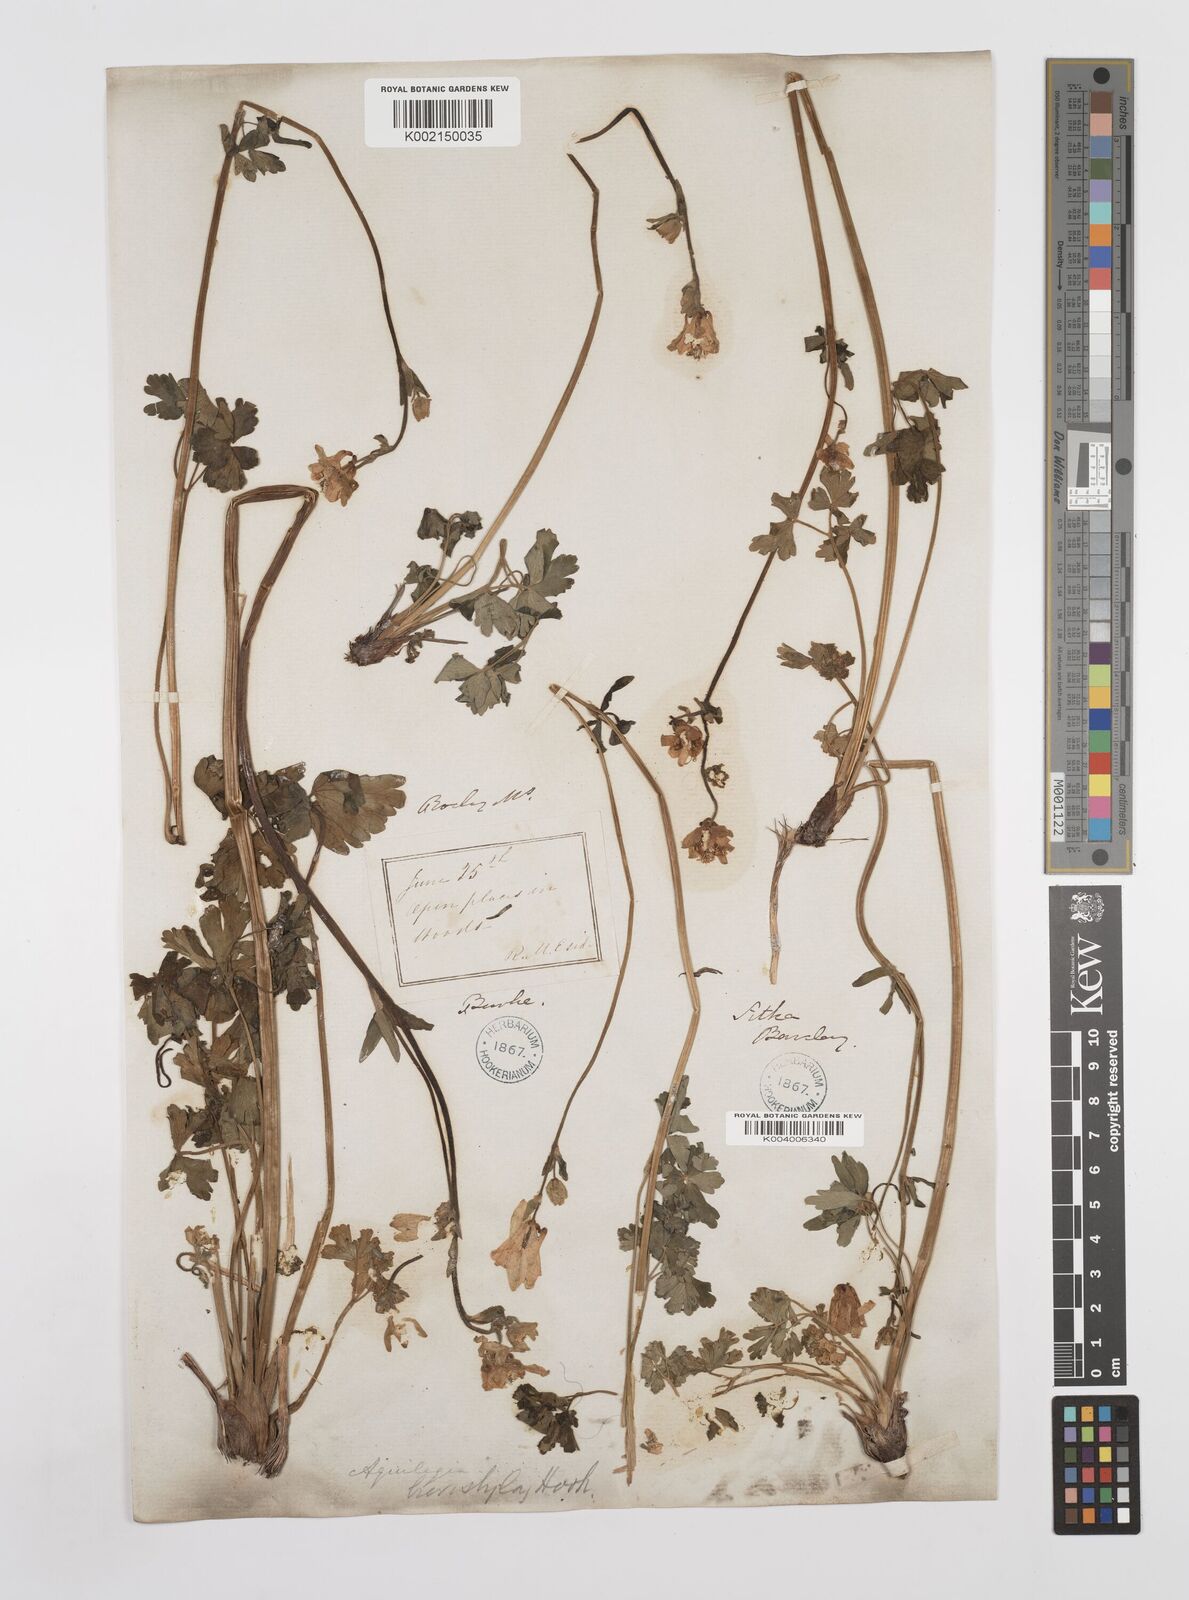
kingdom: Plantae
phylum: Tracheophyta
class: Magnoliopsida
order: Ranunculales
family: Ranunculaceae
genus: Aquilegia
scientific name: Aquilegia brevistyla
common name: Yukon columbine
